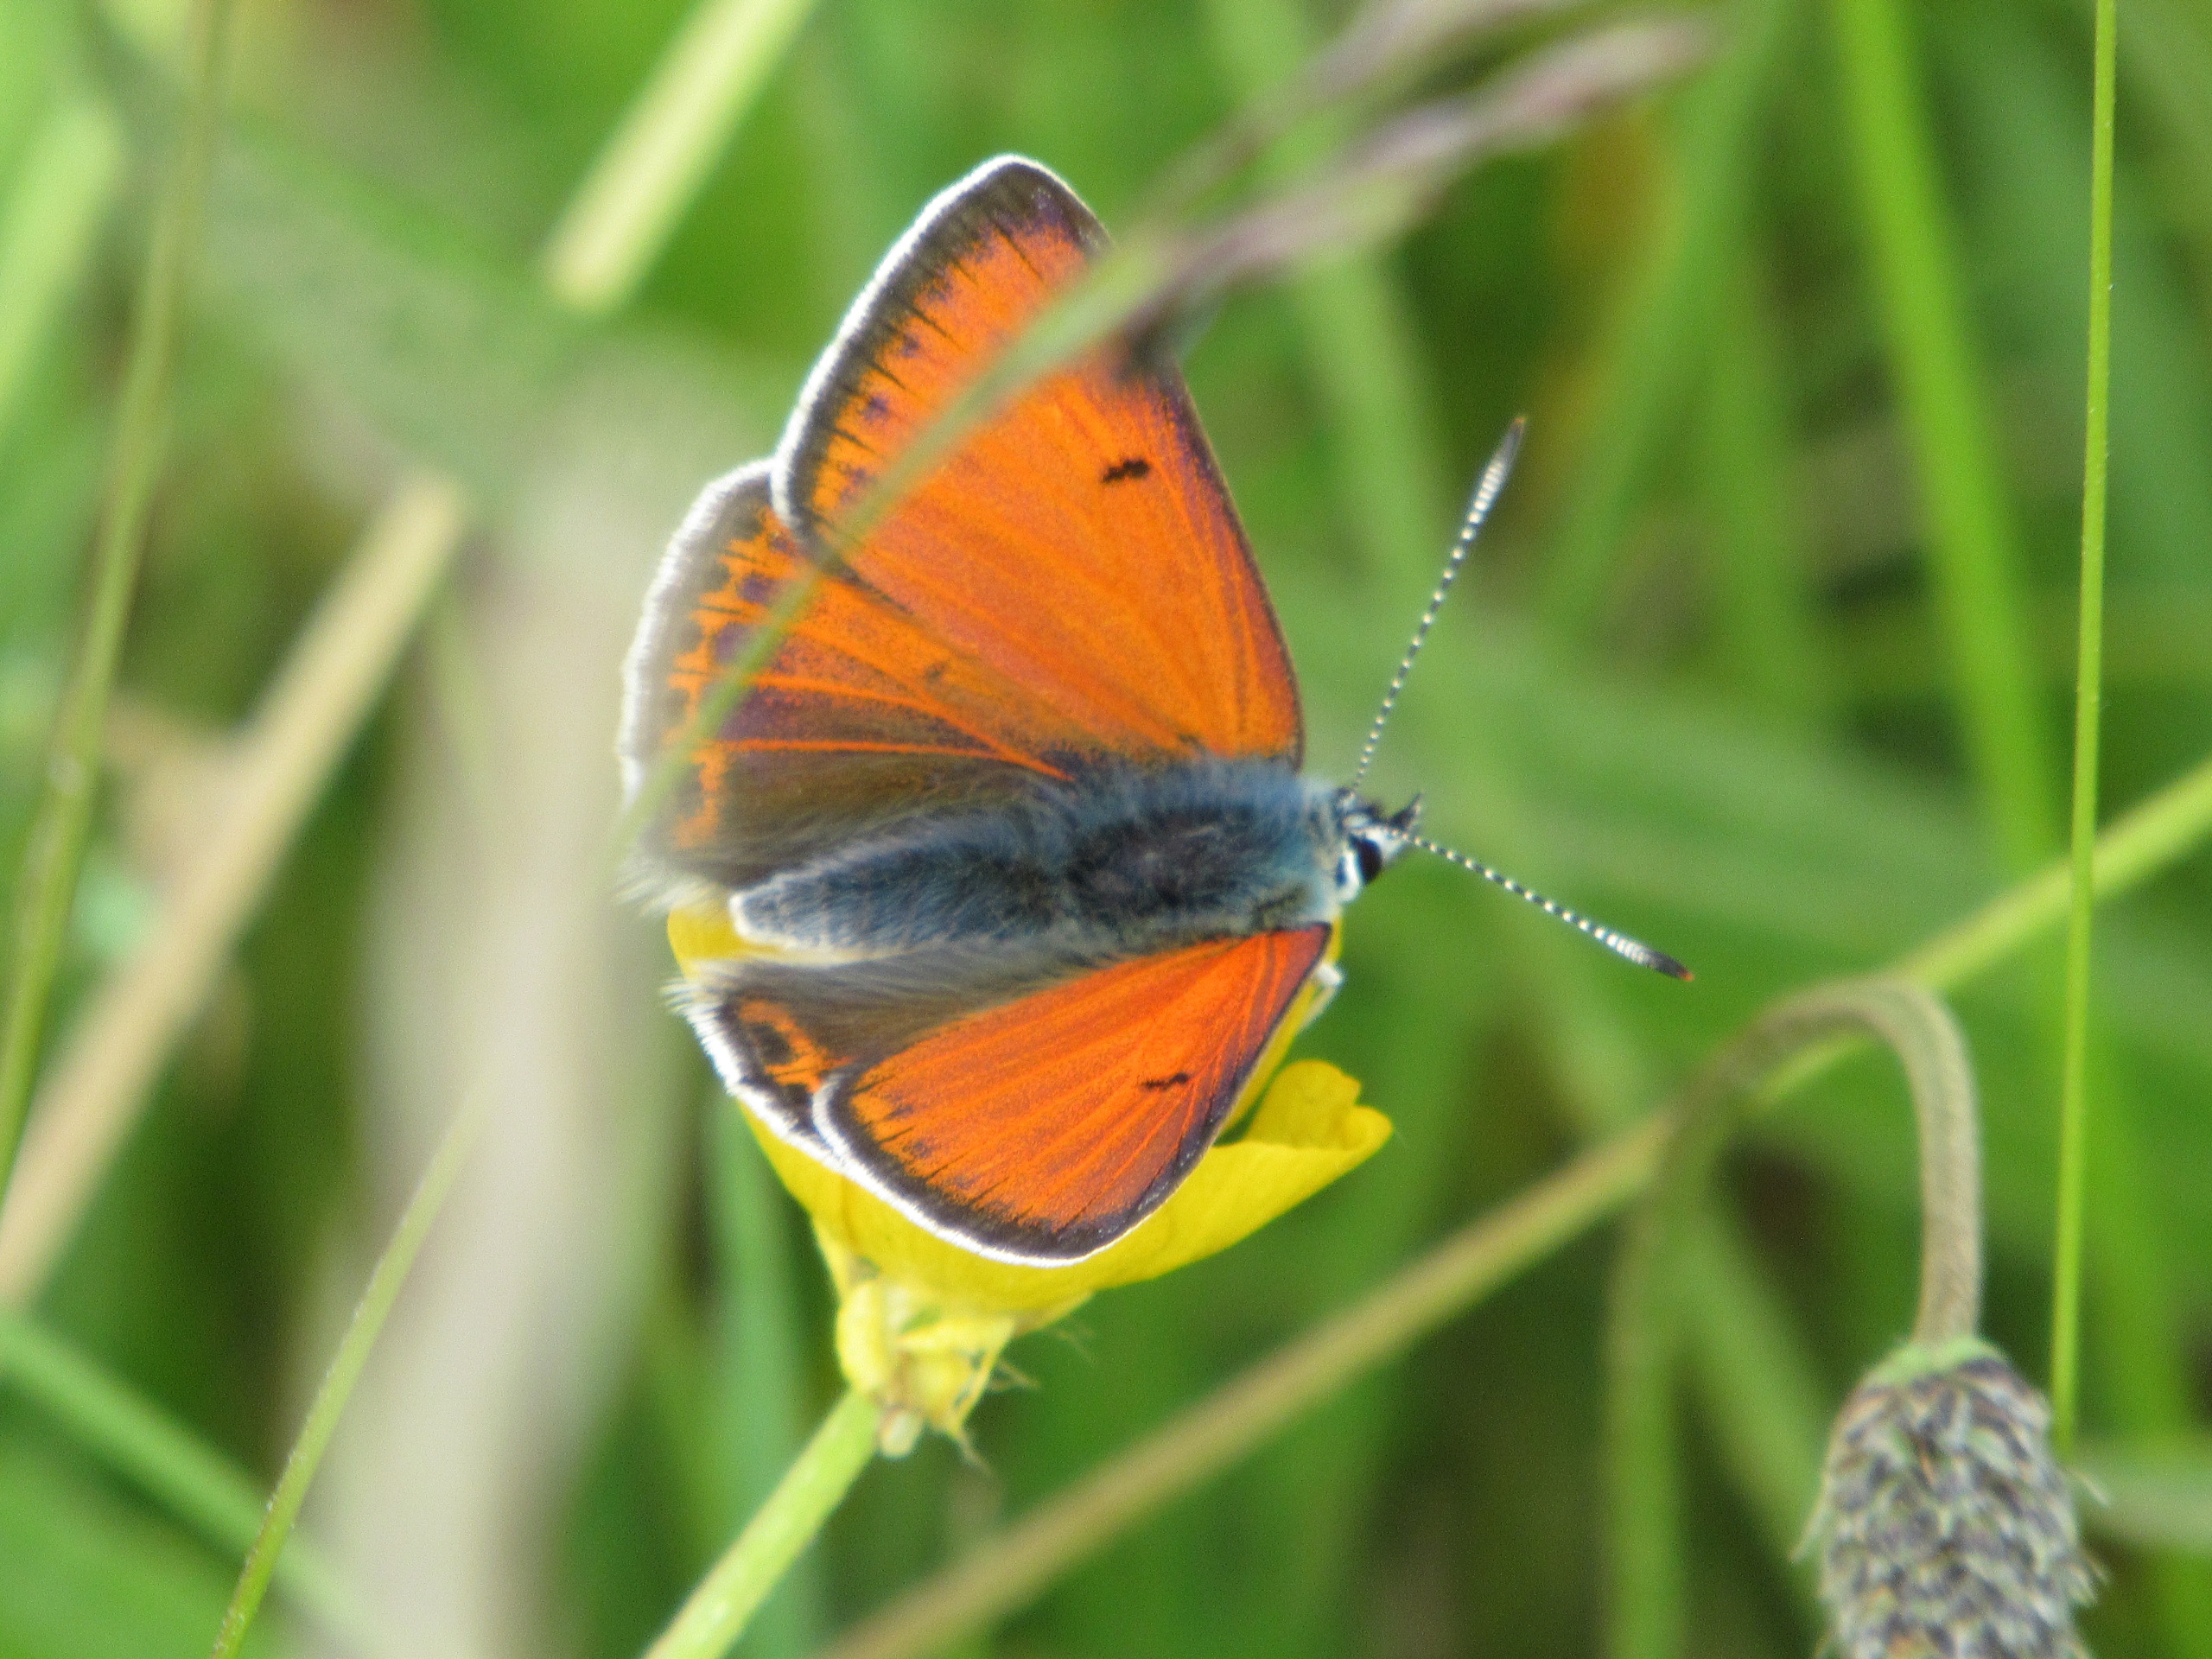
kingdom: Animalia
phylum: Arthropoda
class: Insecta
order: Lepidoptera
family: Lycaenidae
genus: Palaeochrysophanus
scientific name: Palaeochrysophanus hippothoe
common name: Violetrandet ildfugl
